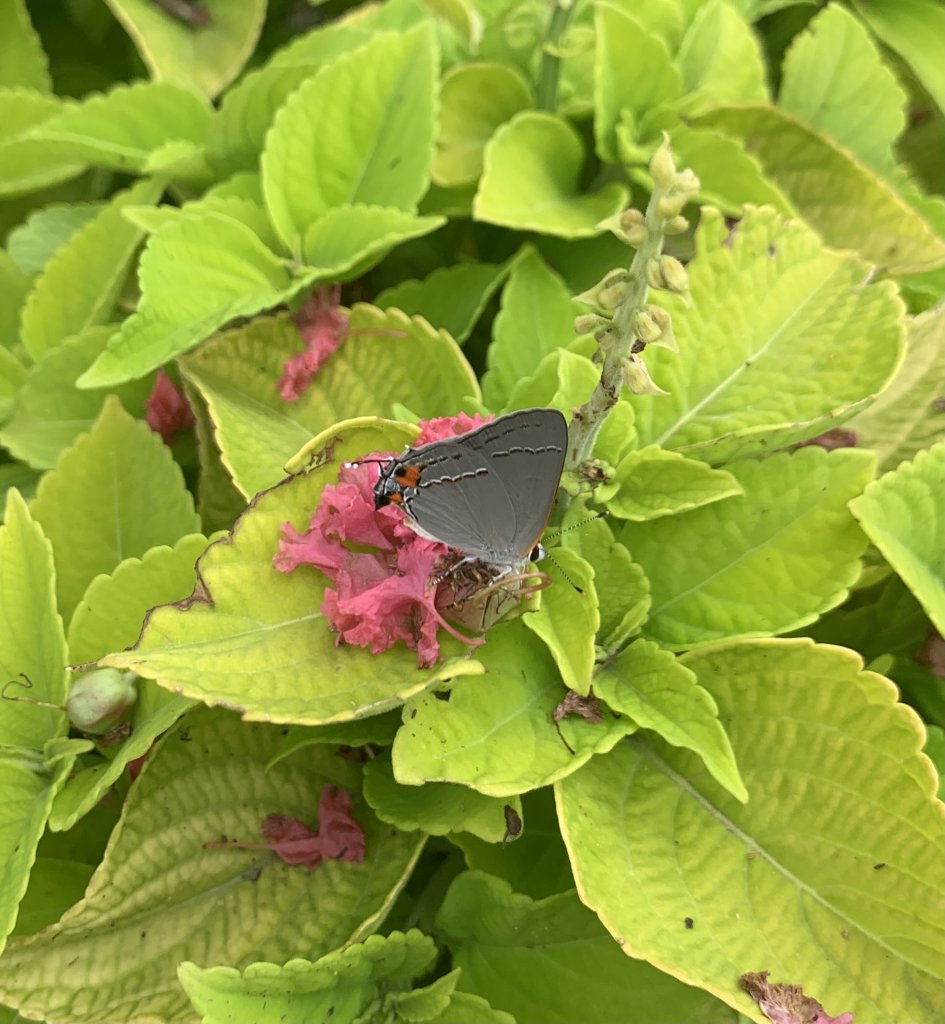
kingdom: Animalia
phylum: Arthropoda
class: Insecta
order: Lepidoptera
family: Lycaenidae
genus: Strymon
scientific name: Strymon melinus
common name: Gray Hairstreak
